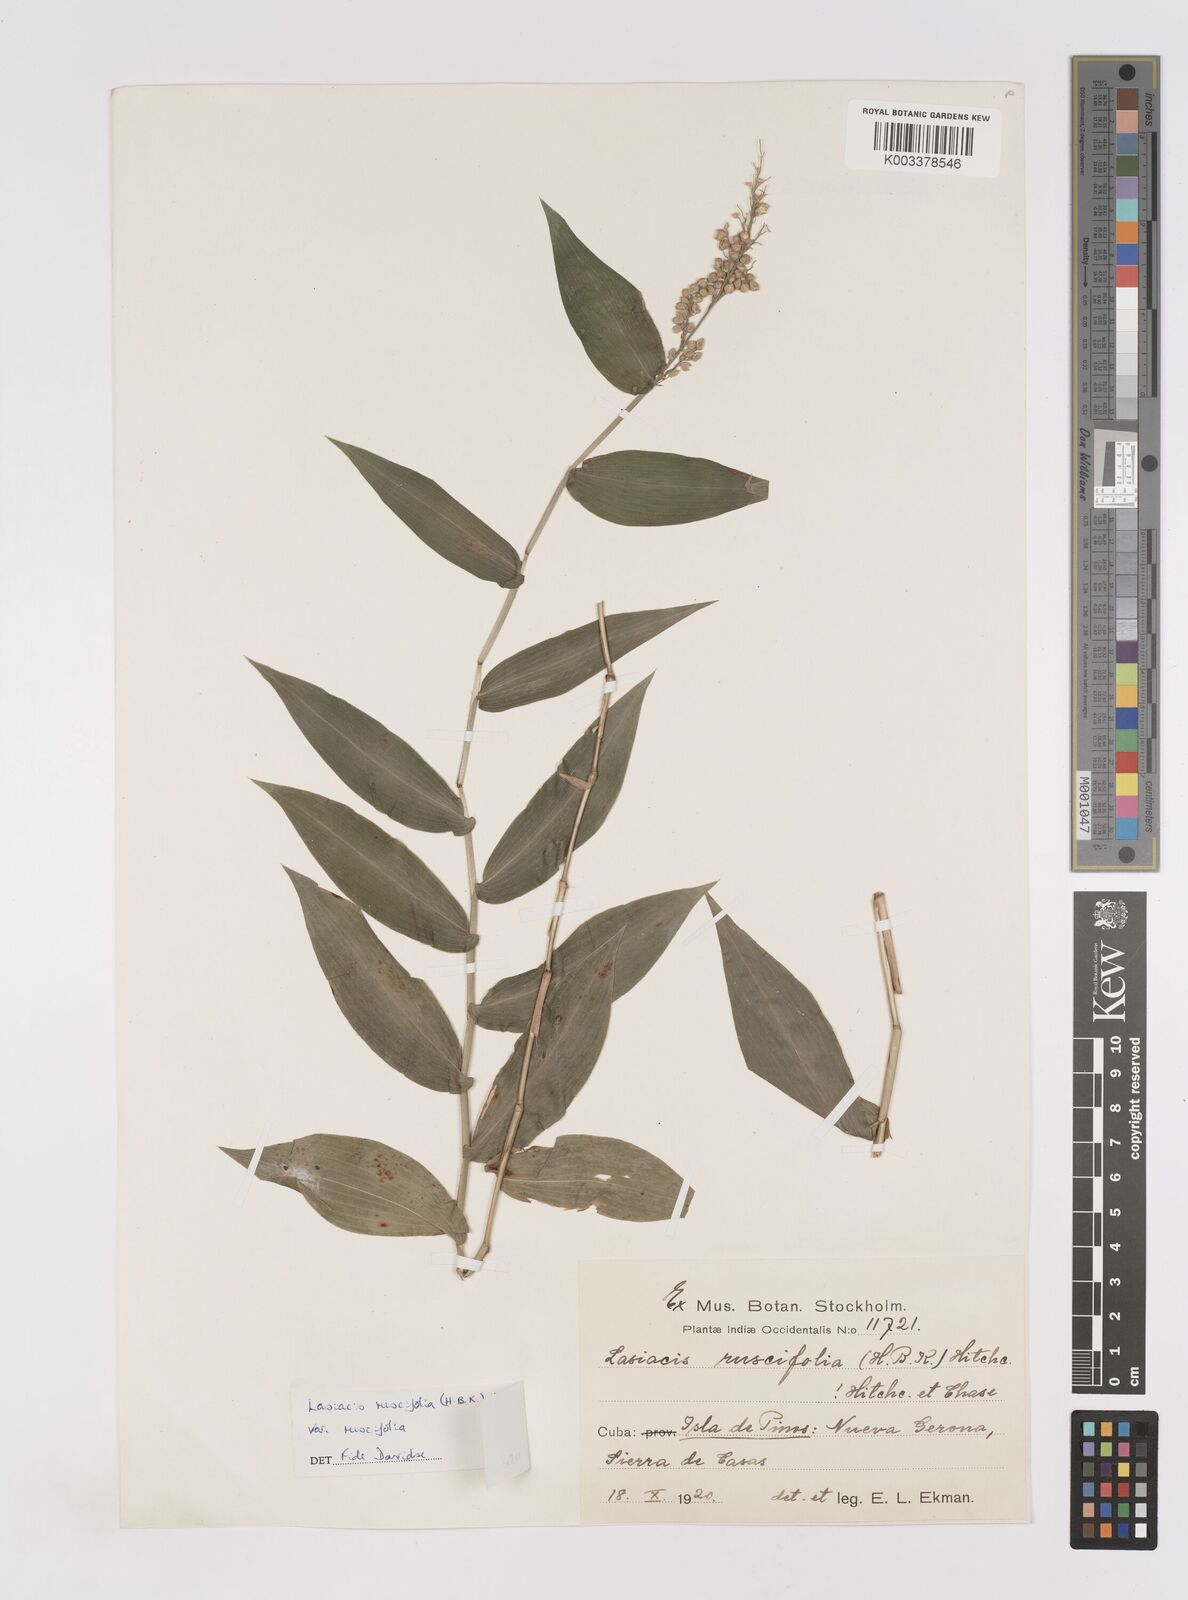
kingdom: Plantae
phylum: Tracheophyta
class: Liliopsida
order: Poales
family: Poaceae
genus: Lasiacis
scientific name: Lasiacis ruscifolia
